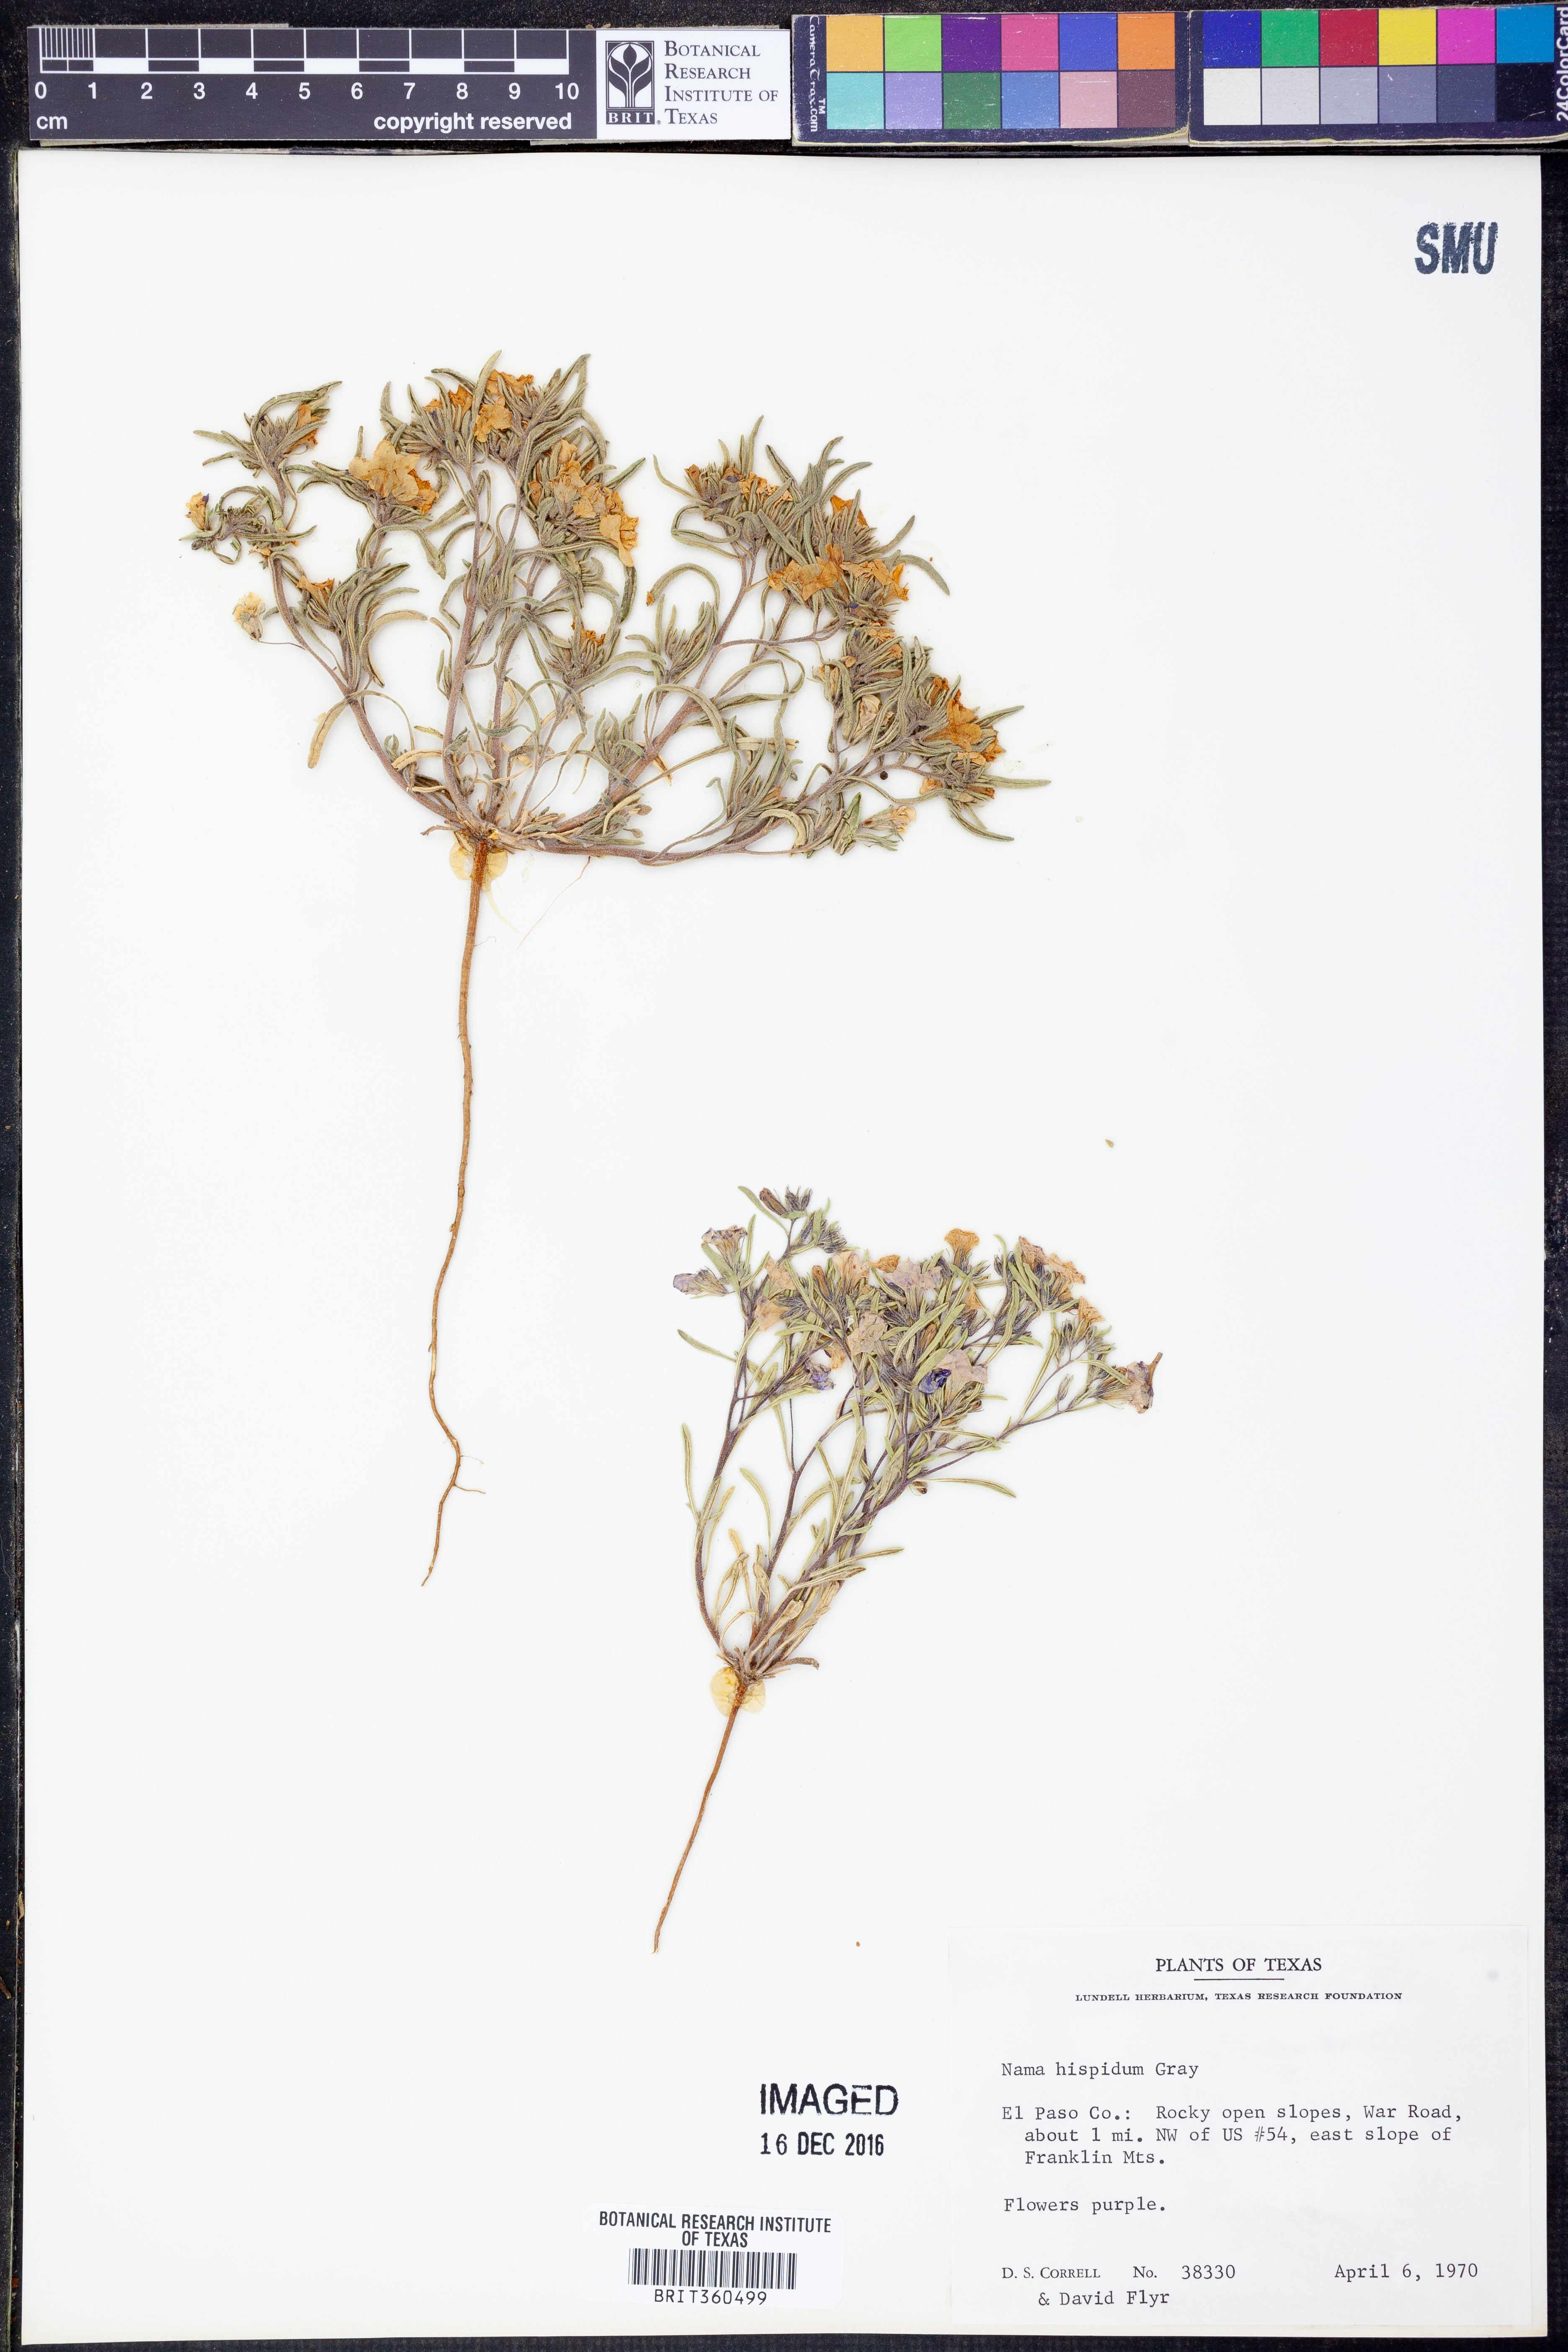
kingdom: Plantae
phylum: Tracheophyta
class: Magnoliopsida
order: Boraginales
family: Namaceae
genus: Nama
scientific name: Nama hispida
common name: Bristly nama
